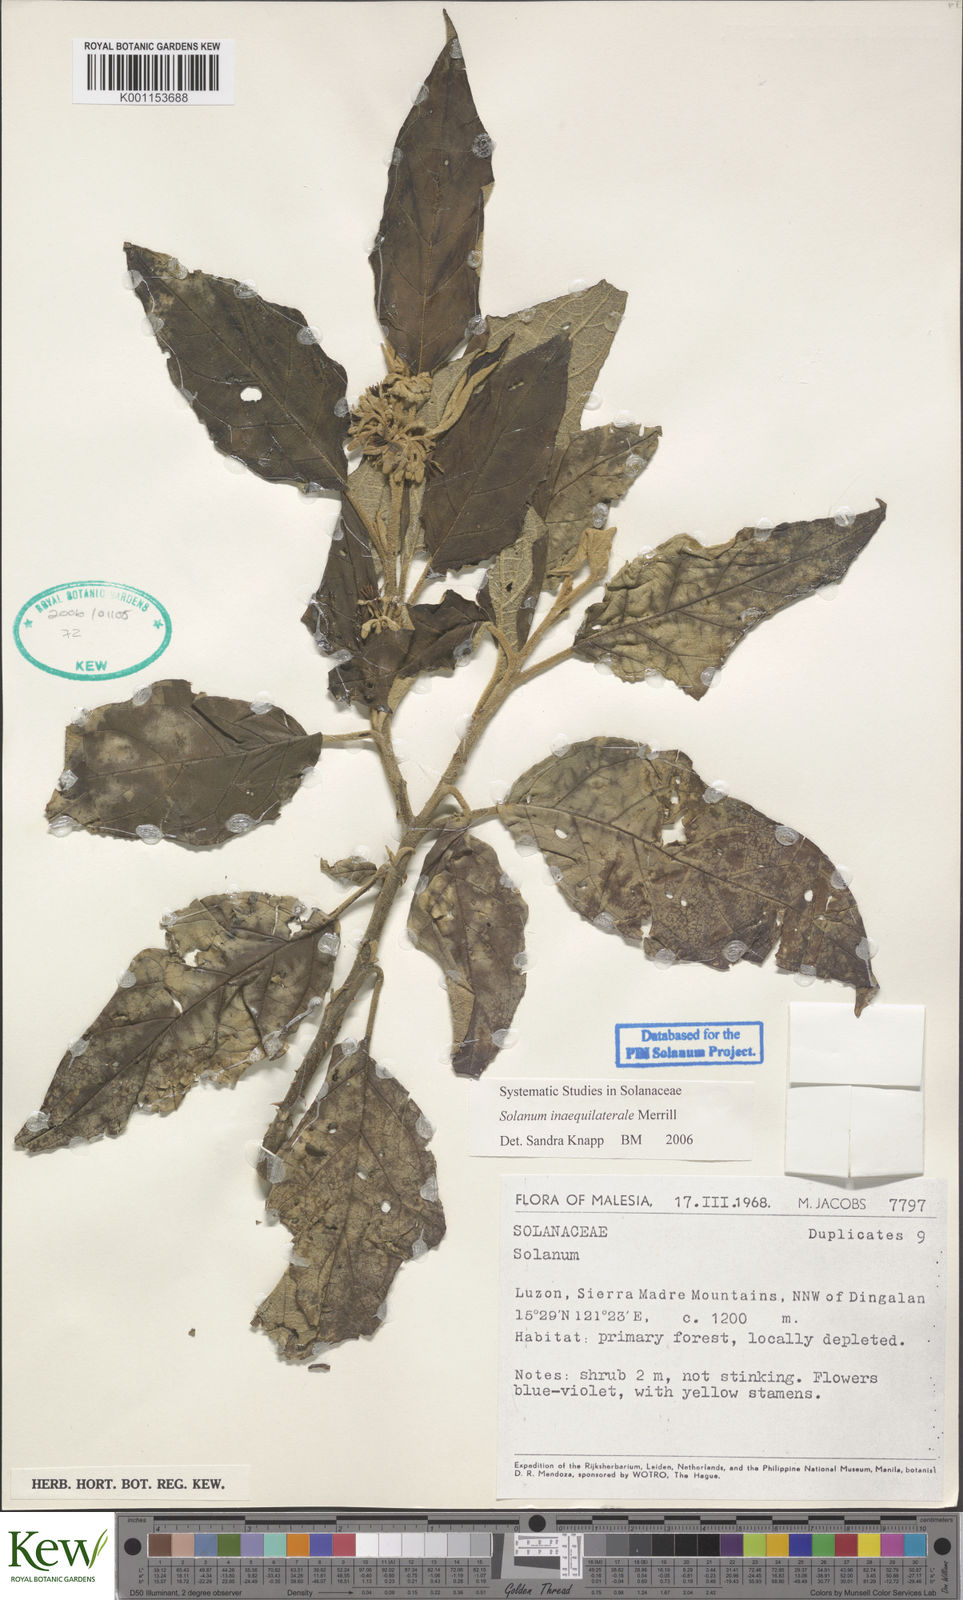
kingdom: Plantae
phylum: Tracheophyta
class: Magnoliopsida
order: Solanales
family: Solanaceae
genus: Solanum
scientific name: Solanum pseudosaponaceum
